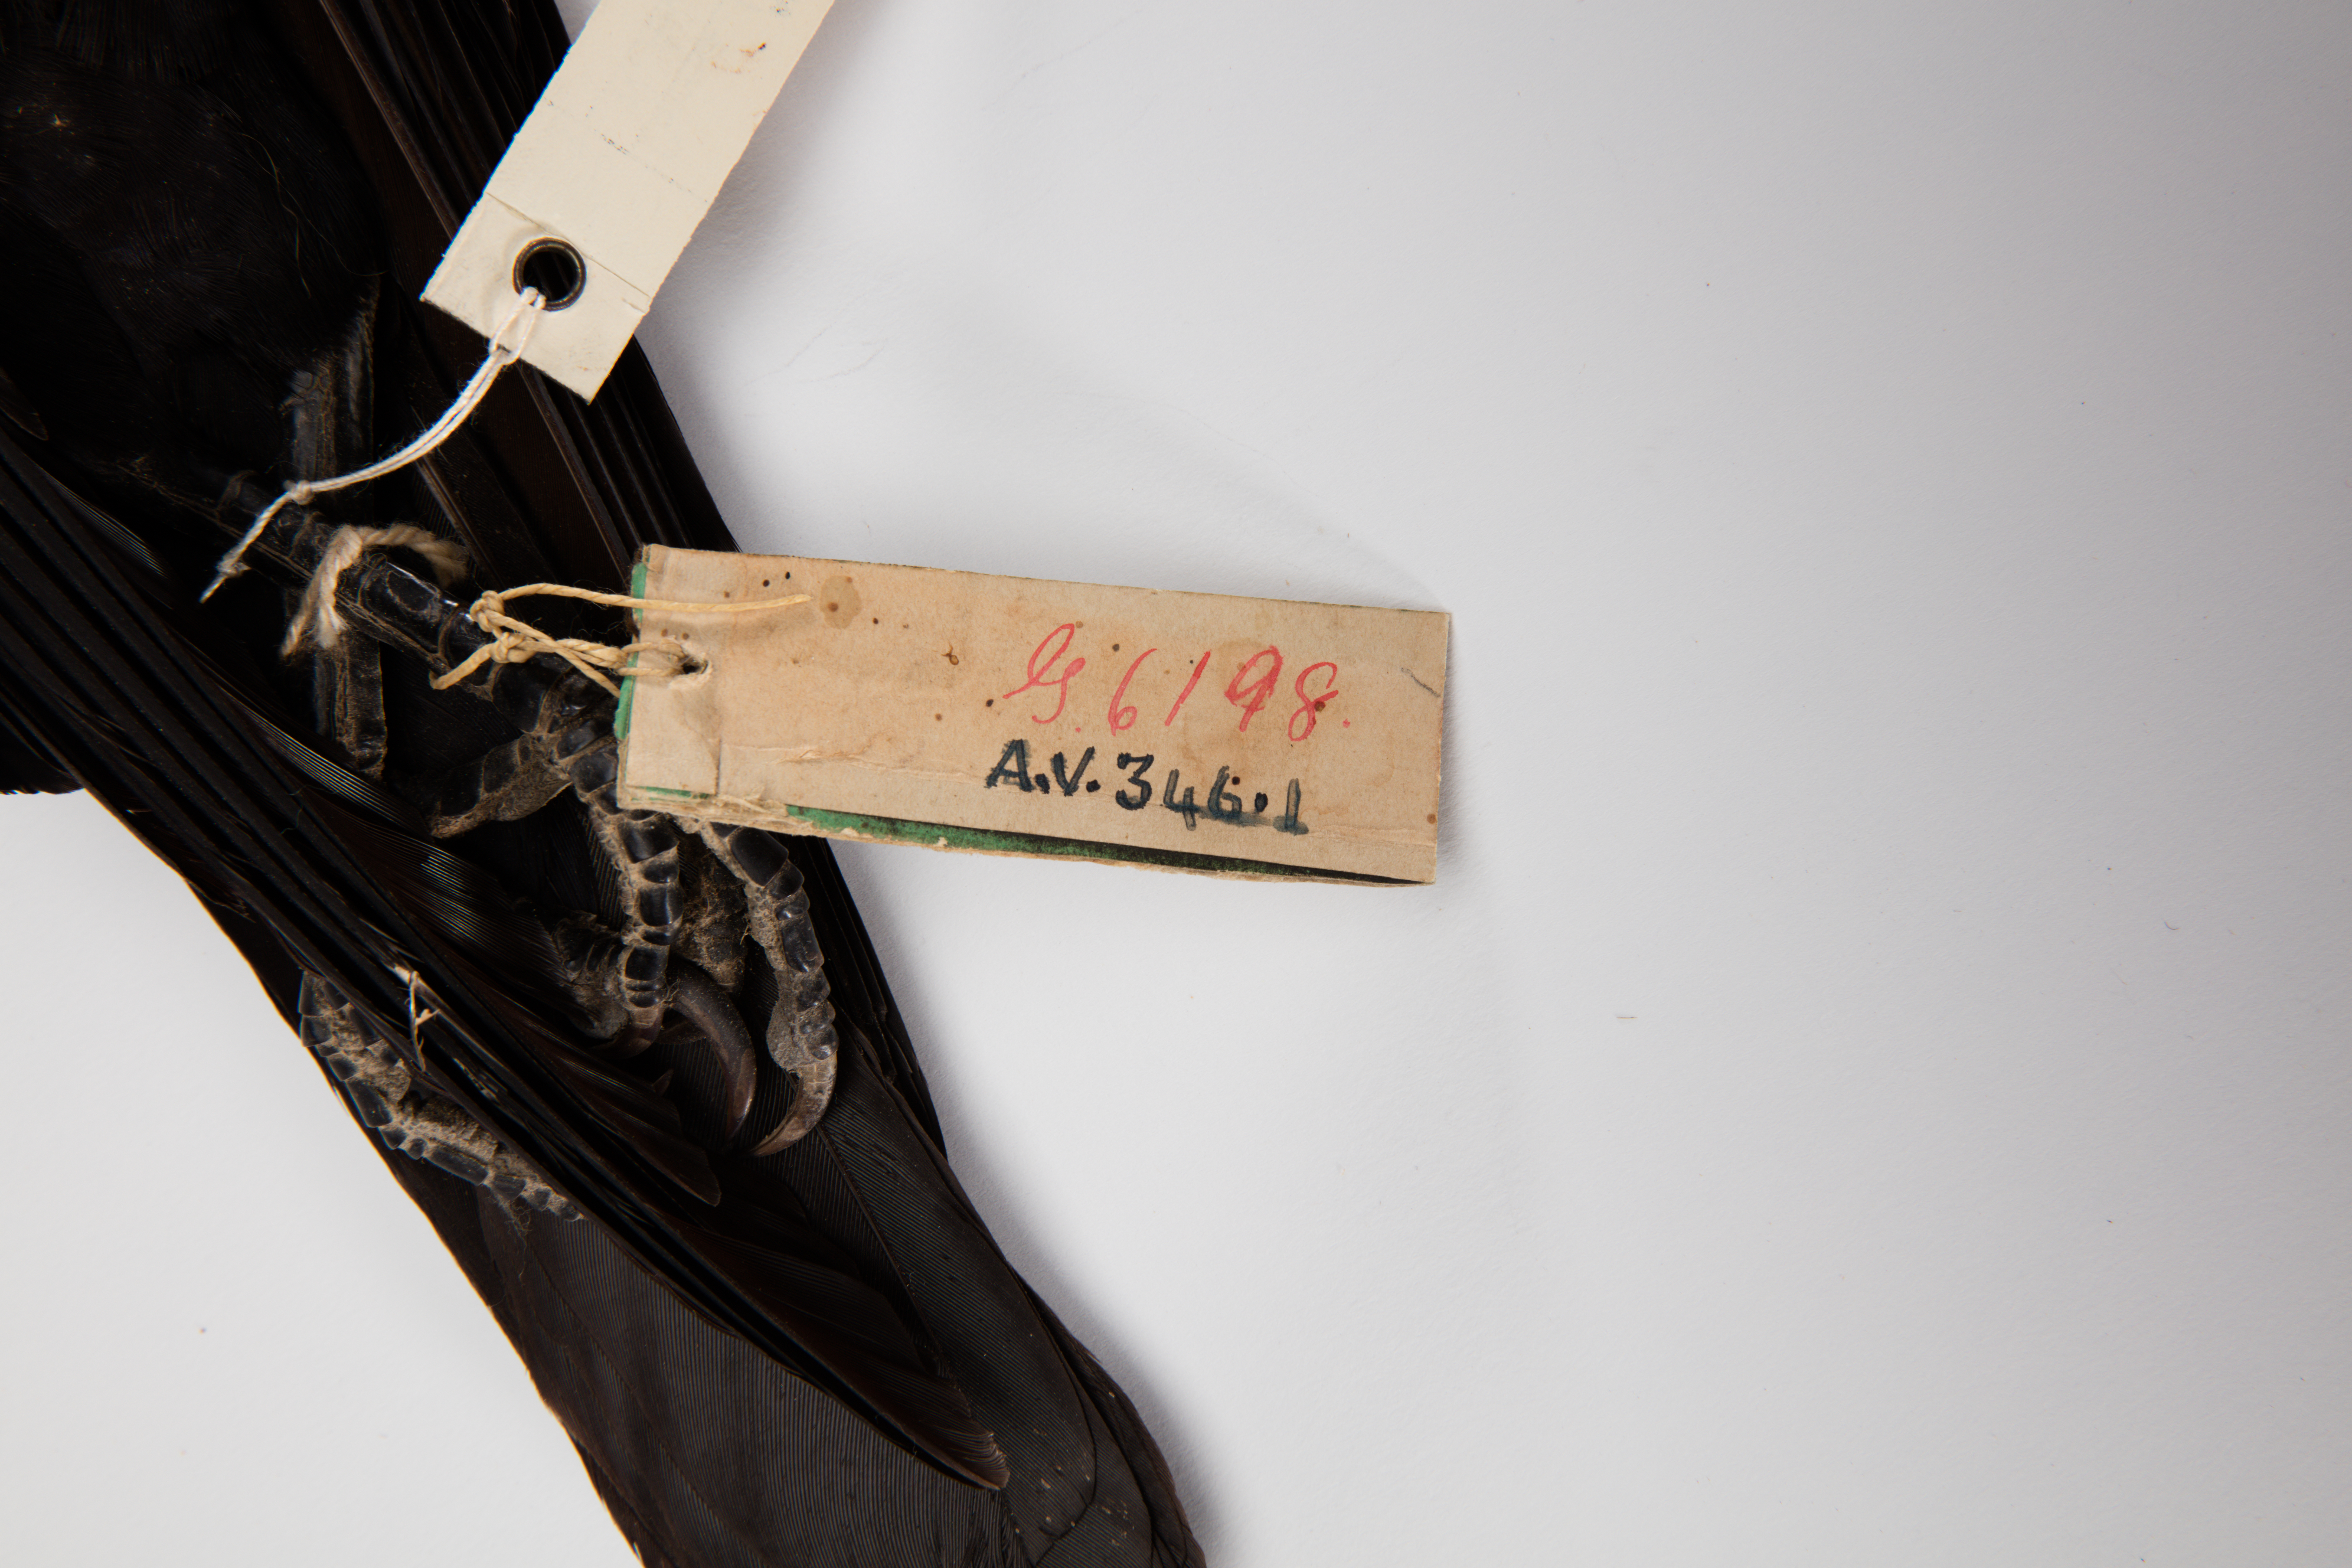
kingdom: Animalia
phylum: Chordata
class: Aves
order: Passeriformes
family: Corvidae
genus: Corvus
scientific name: Corvus brachyrhynchos
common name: American crow
